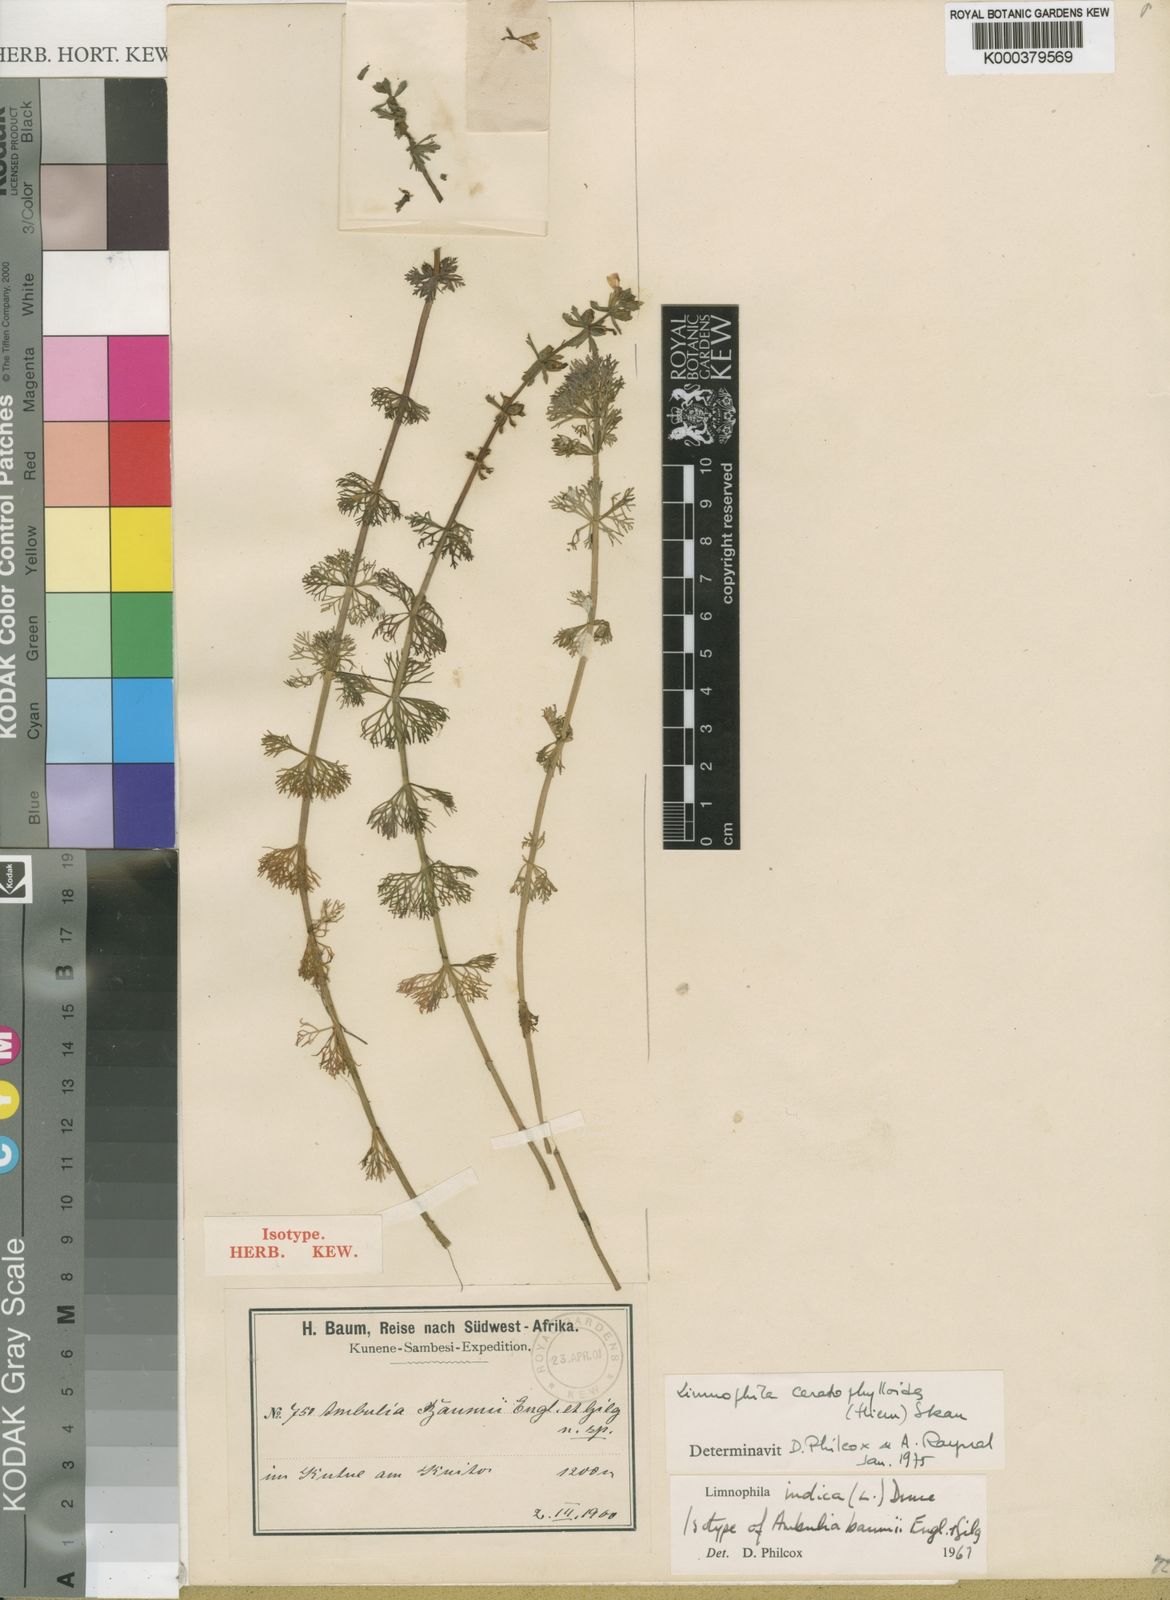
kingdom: Plantae
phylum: Tracheophyta
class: Magnoliopsida
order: Lamiales
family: Plantaginaceae
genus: Limnophila
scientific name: Limnophila ceratophylloides
